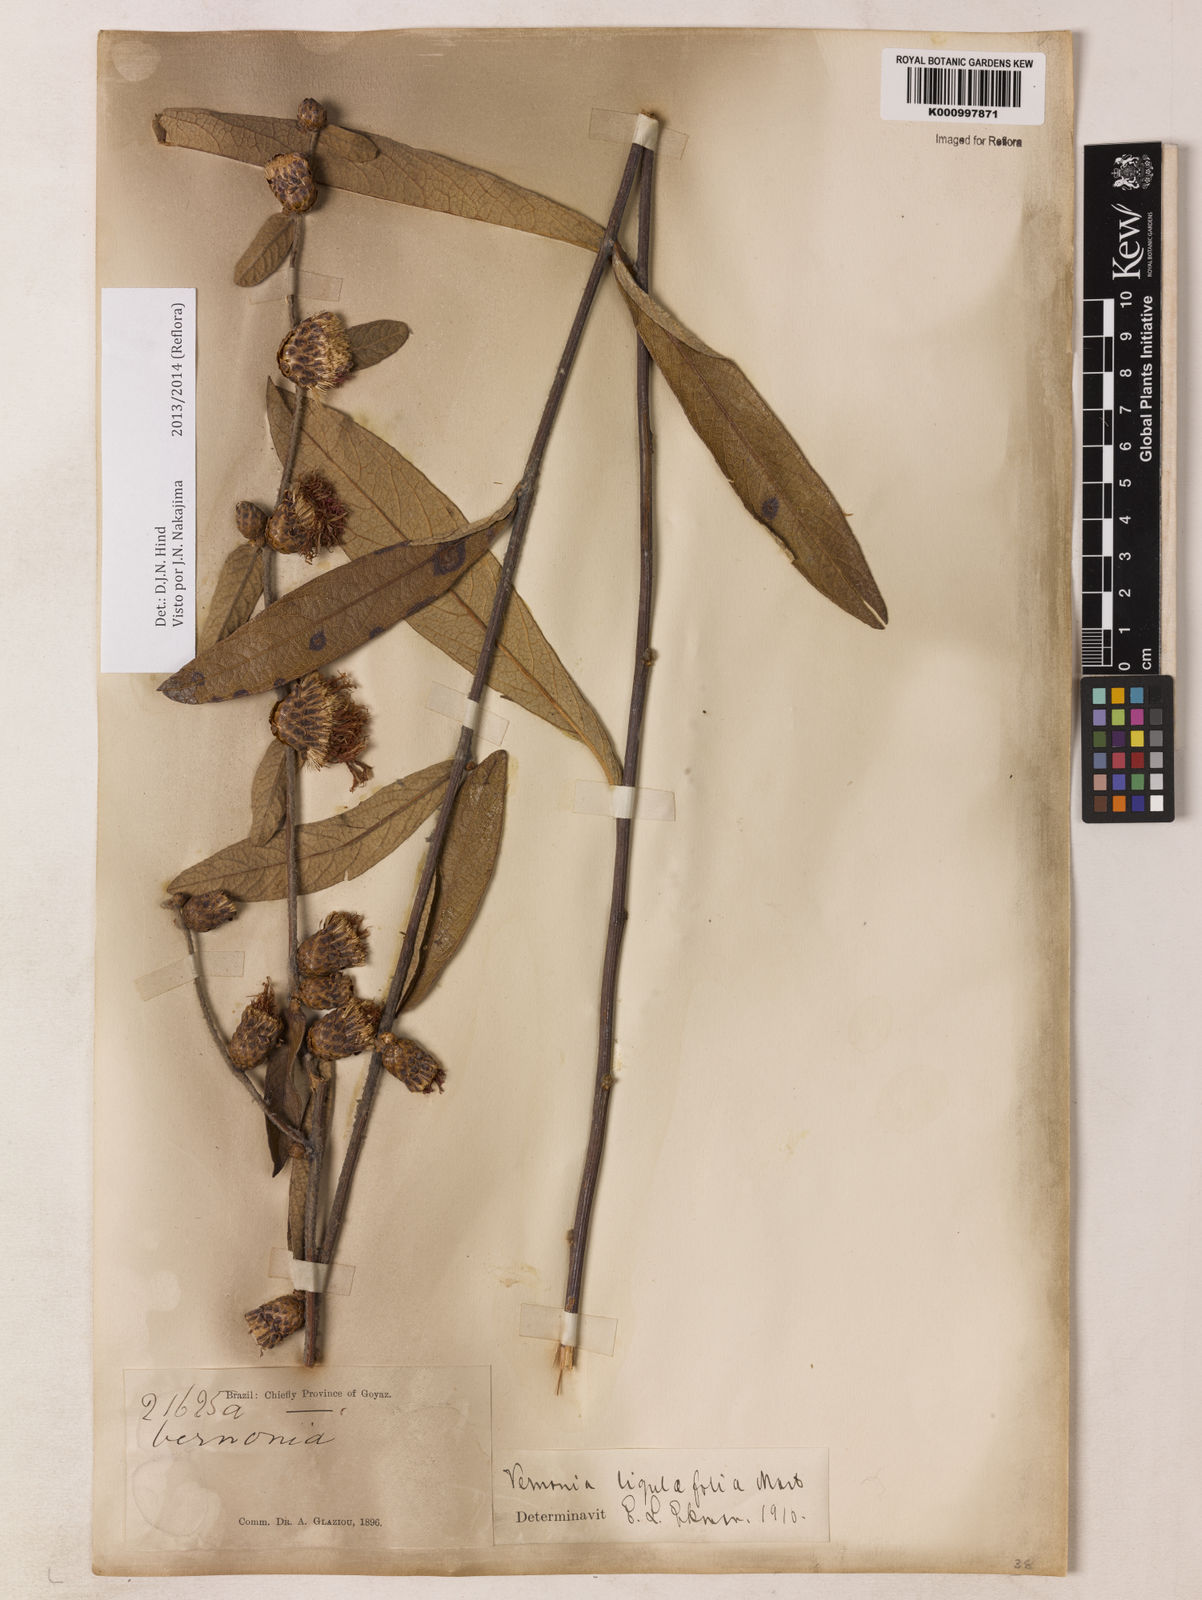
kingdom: Plantae
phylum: Tracheophyta
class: Magnoliopsida
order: Asterales
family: Asteraceae
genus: Lessingianthus
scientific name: Lessingianthus ligulifolius
